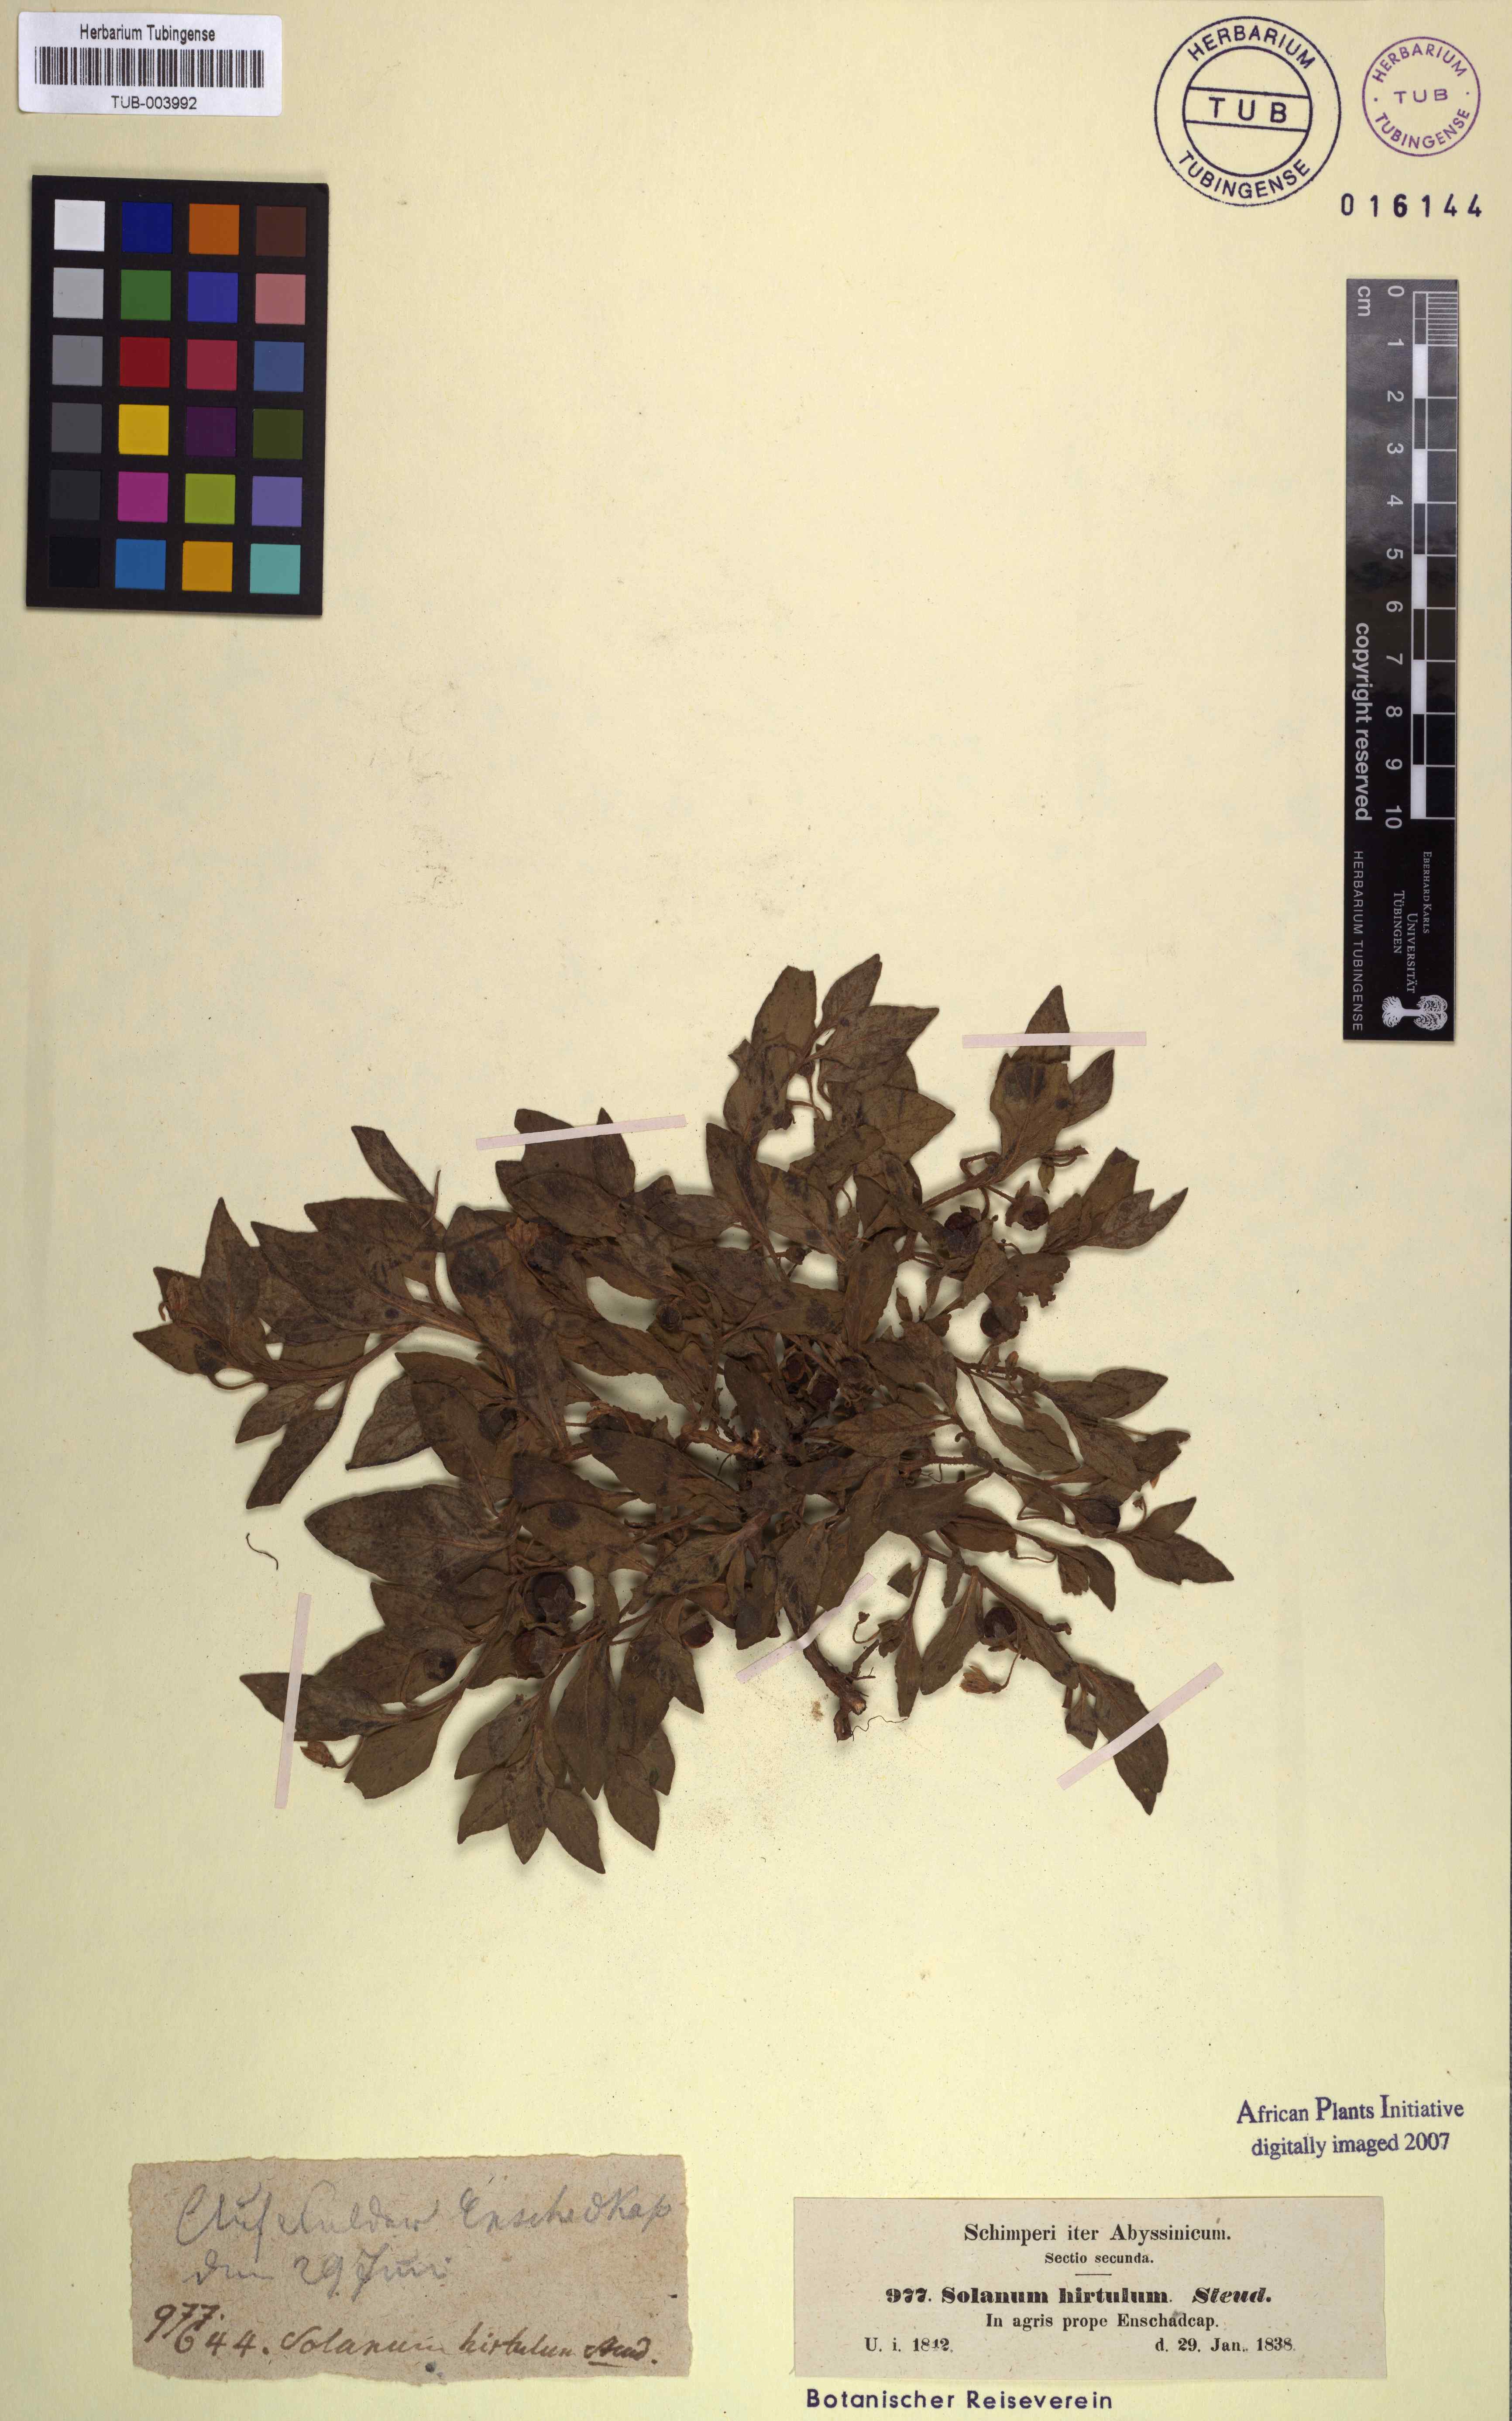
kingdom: Plantae
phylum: Tracheophyta
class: Magnoliopsida
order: Solanales
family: Solanaceae
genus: Solanum
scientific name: Solanum hirtulum
